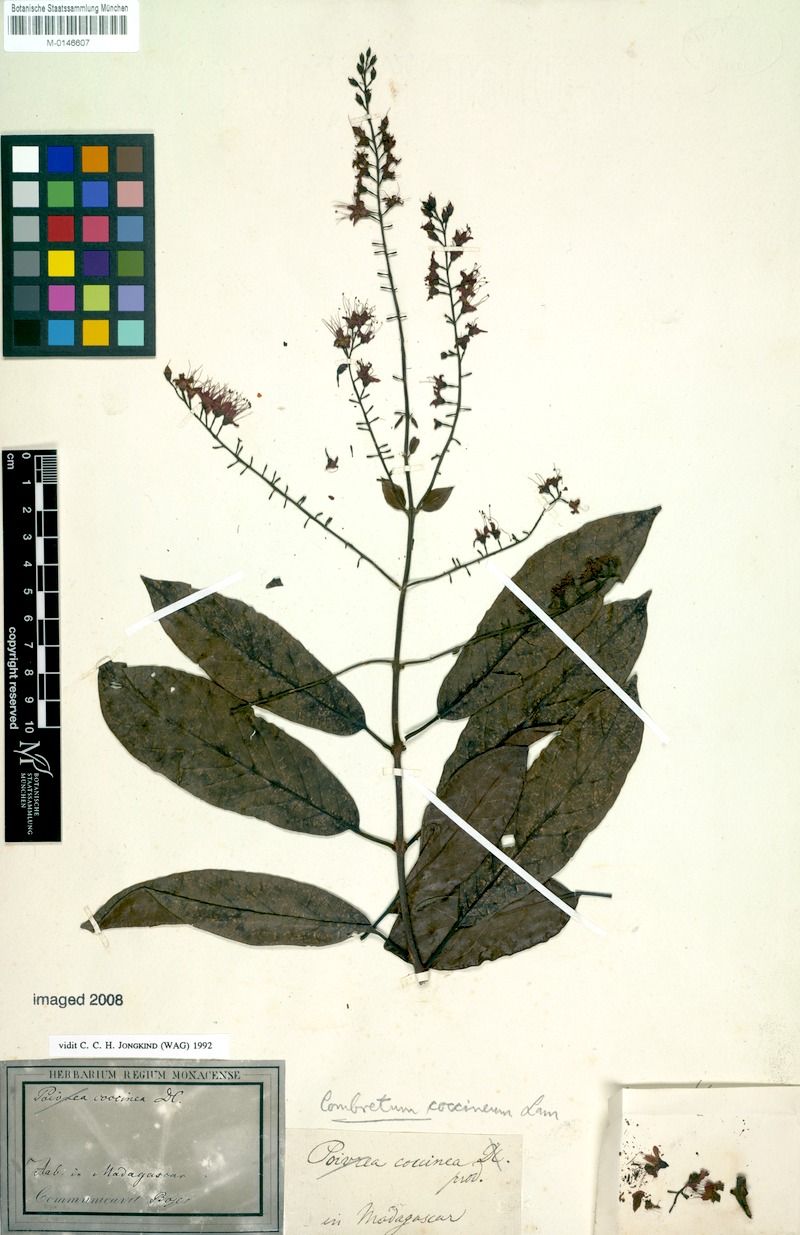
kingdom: Plantae
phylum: Tracheophyta
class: Magnoliopsida
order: Myrtales
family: Combretaceae
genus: Combretum
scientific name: Combretum coccineum
